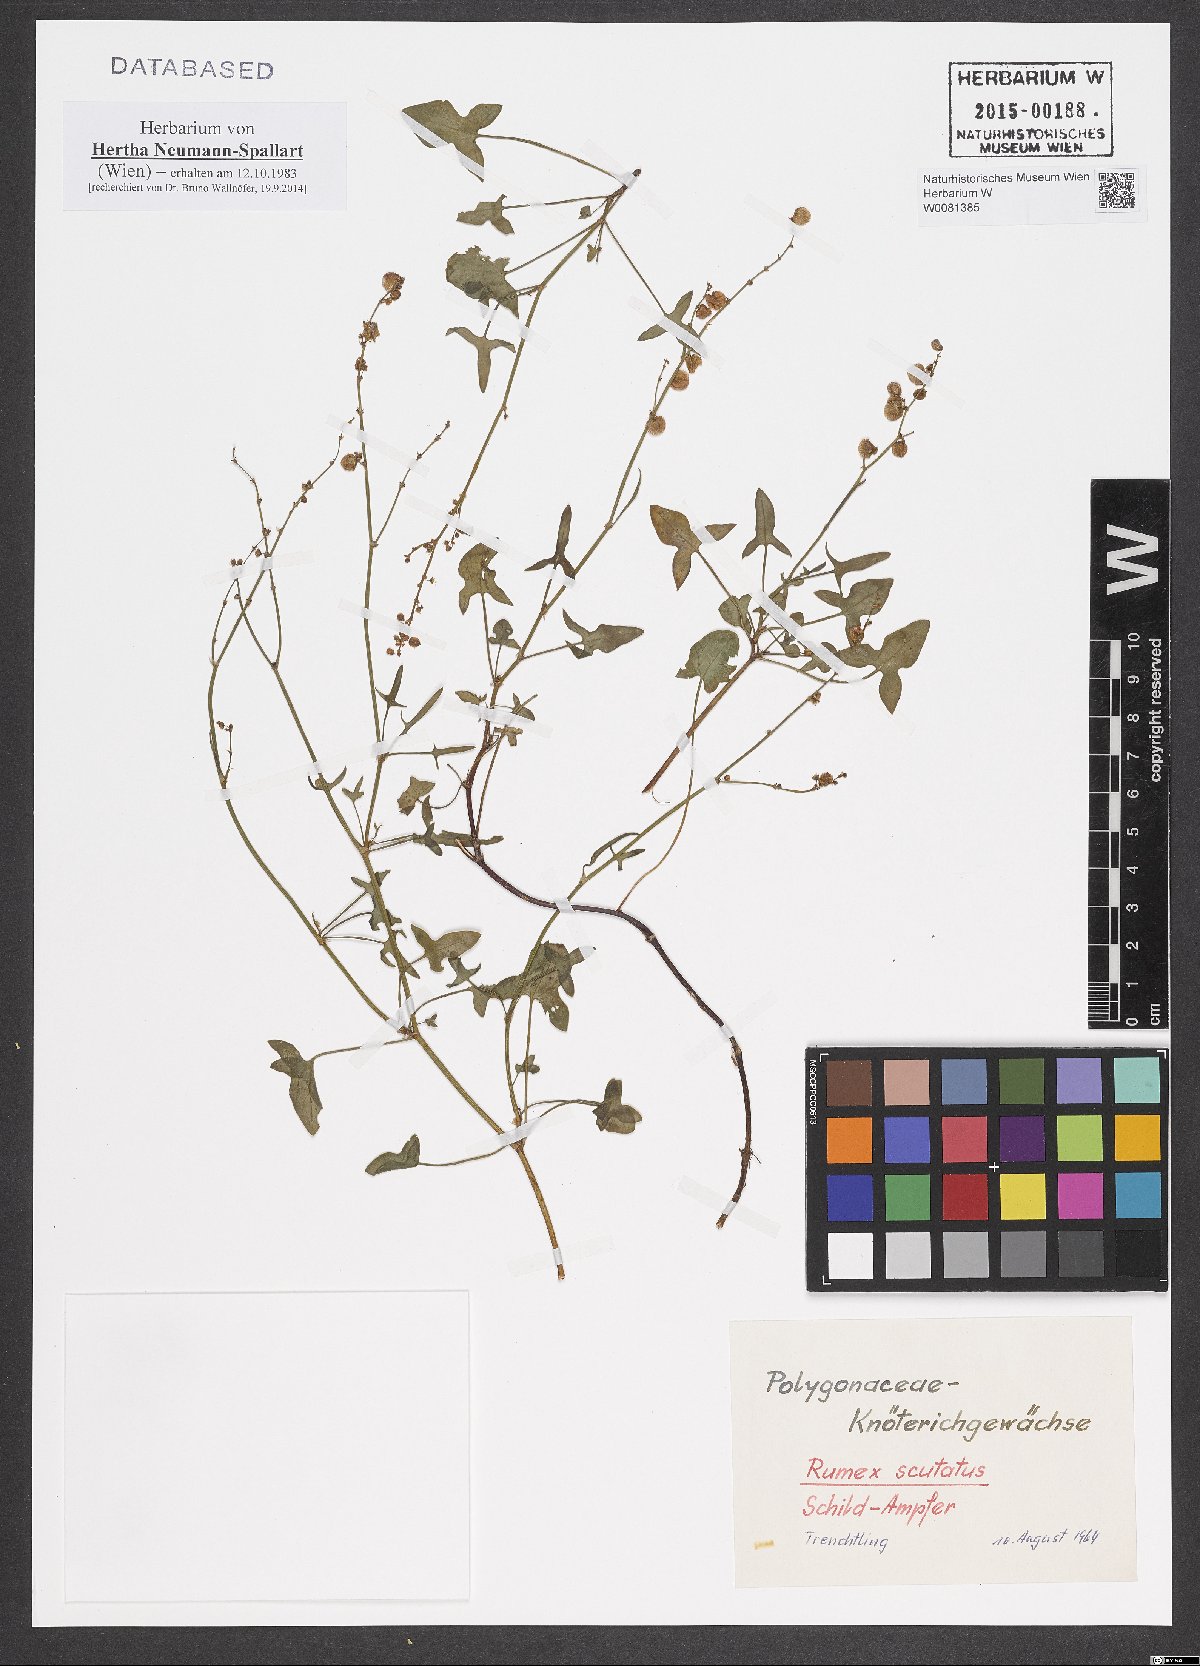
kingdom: Plantae
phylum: Tracheophyta
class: Magnoliopsida
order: Caryophyllales
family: Polygonaceae
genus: Rumex
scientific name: Rumex scutatus
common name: French sorrel
